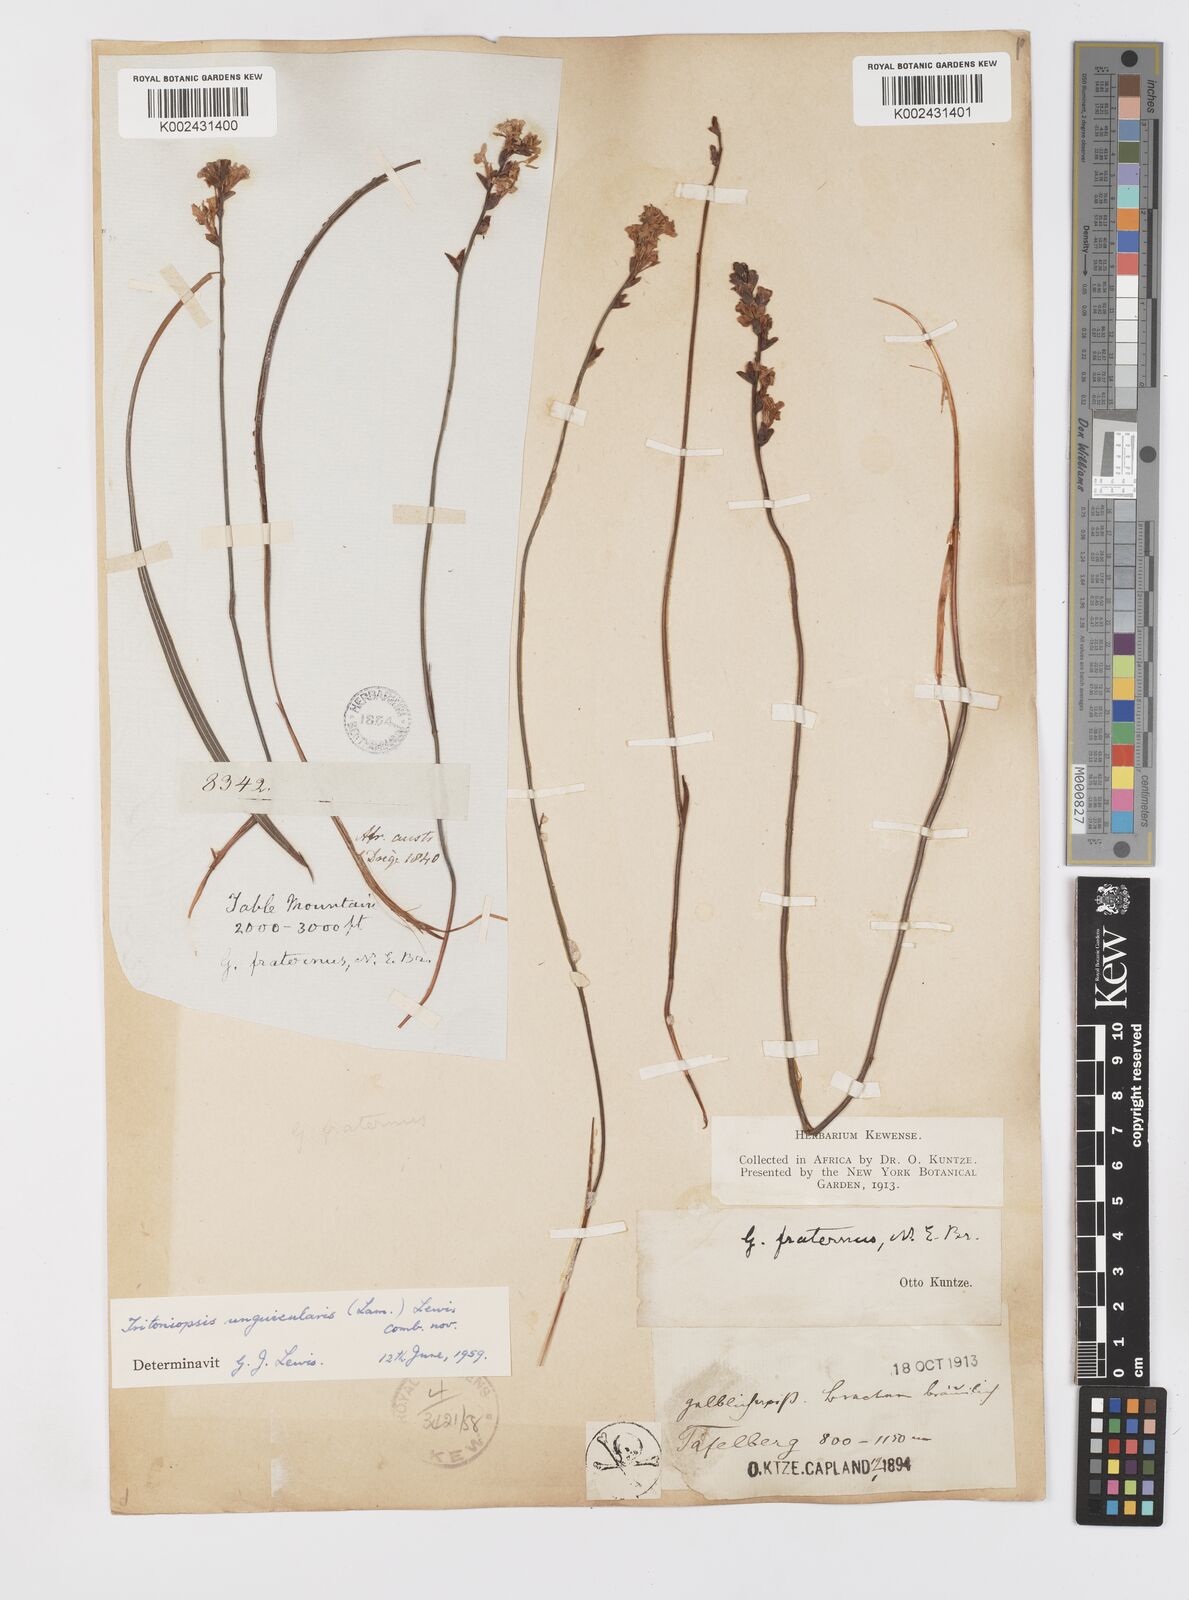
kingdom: Plantae
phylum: Tracheophyta
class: Liliopsida
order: Asparagales
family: Iridaceae
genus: Tritoniopsis
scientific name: Tritoniopsis unguicularis
